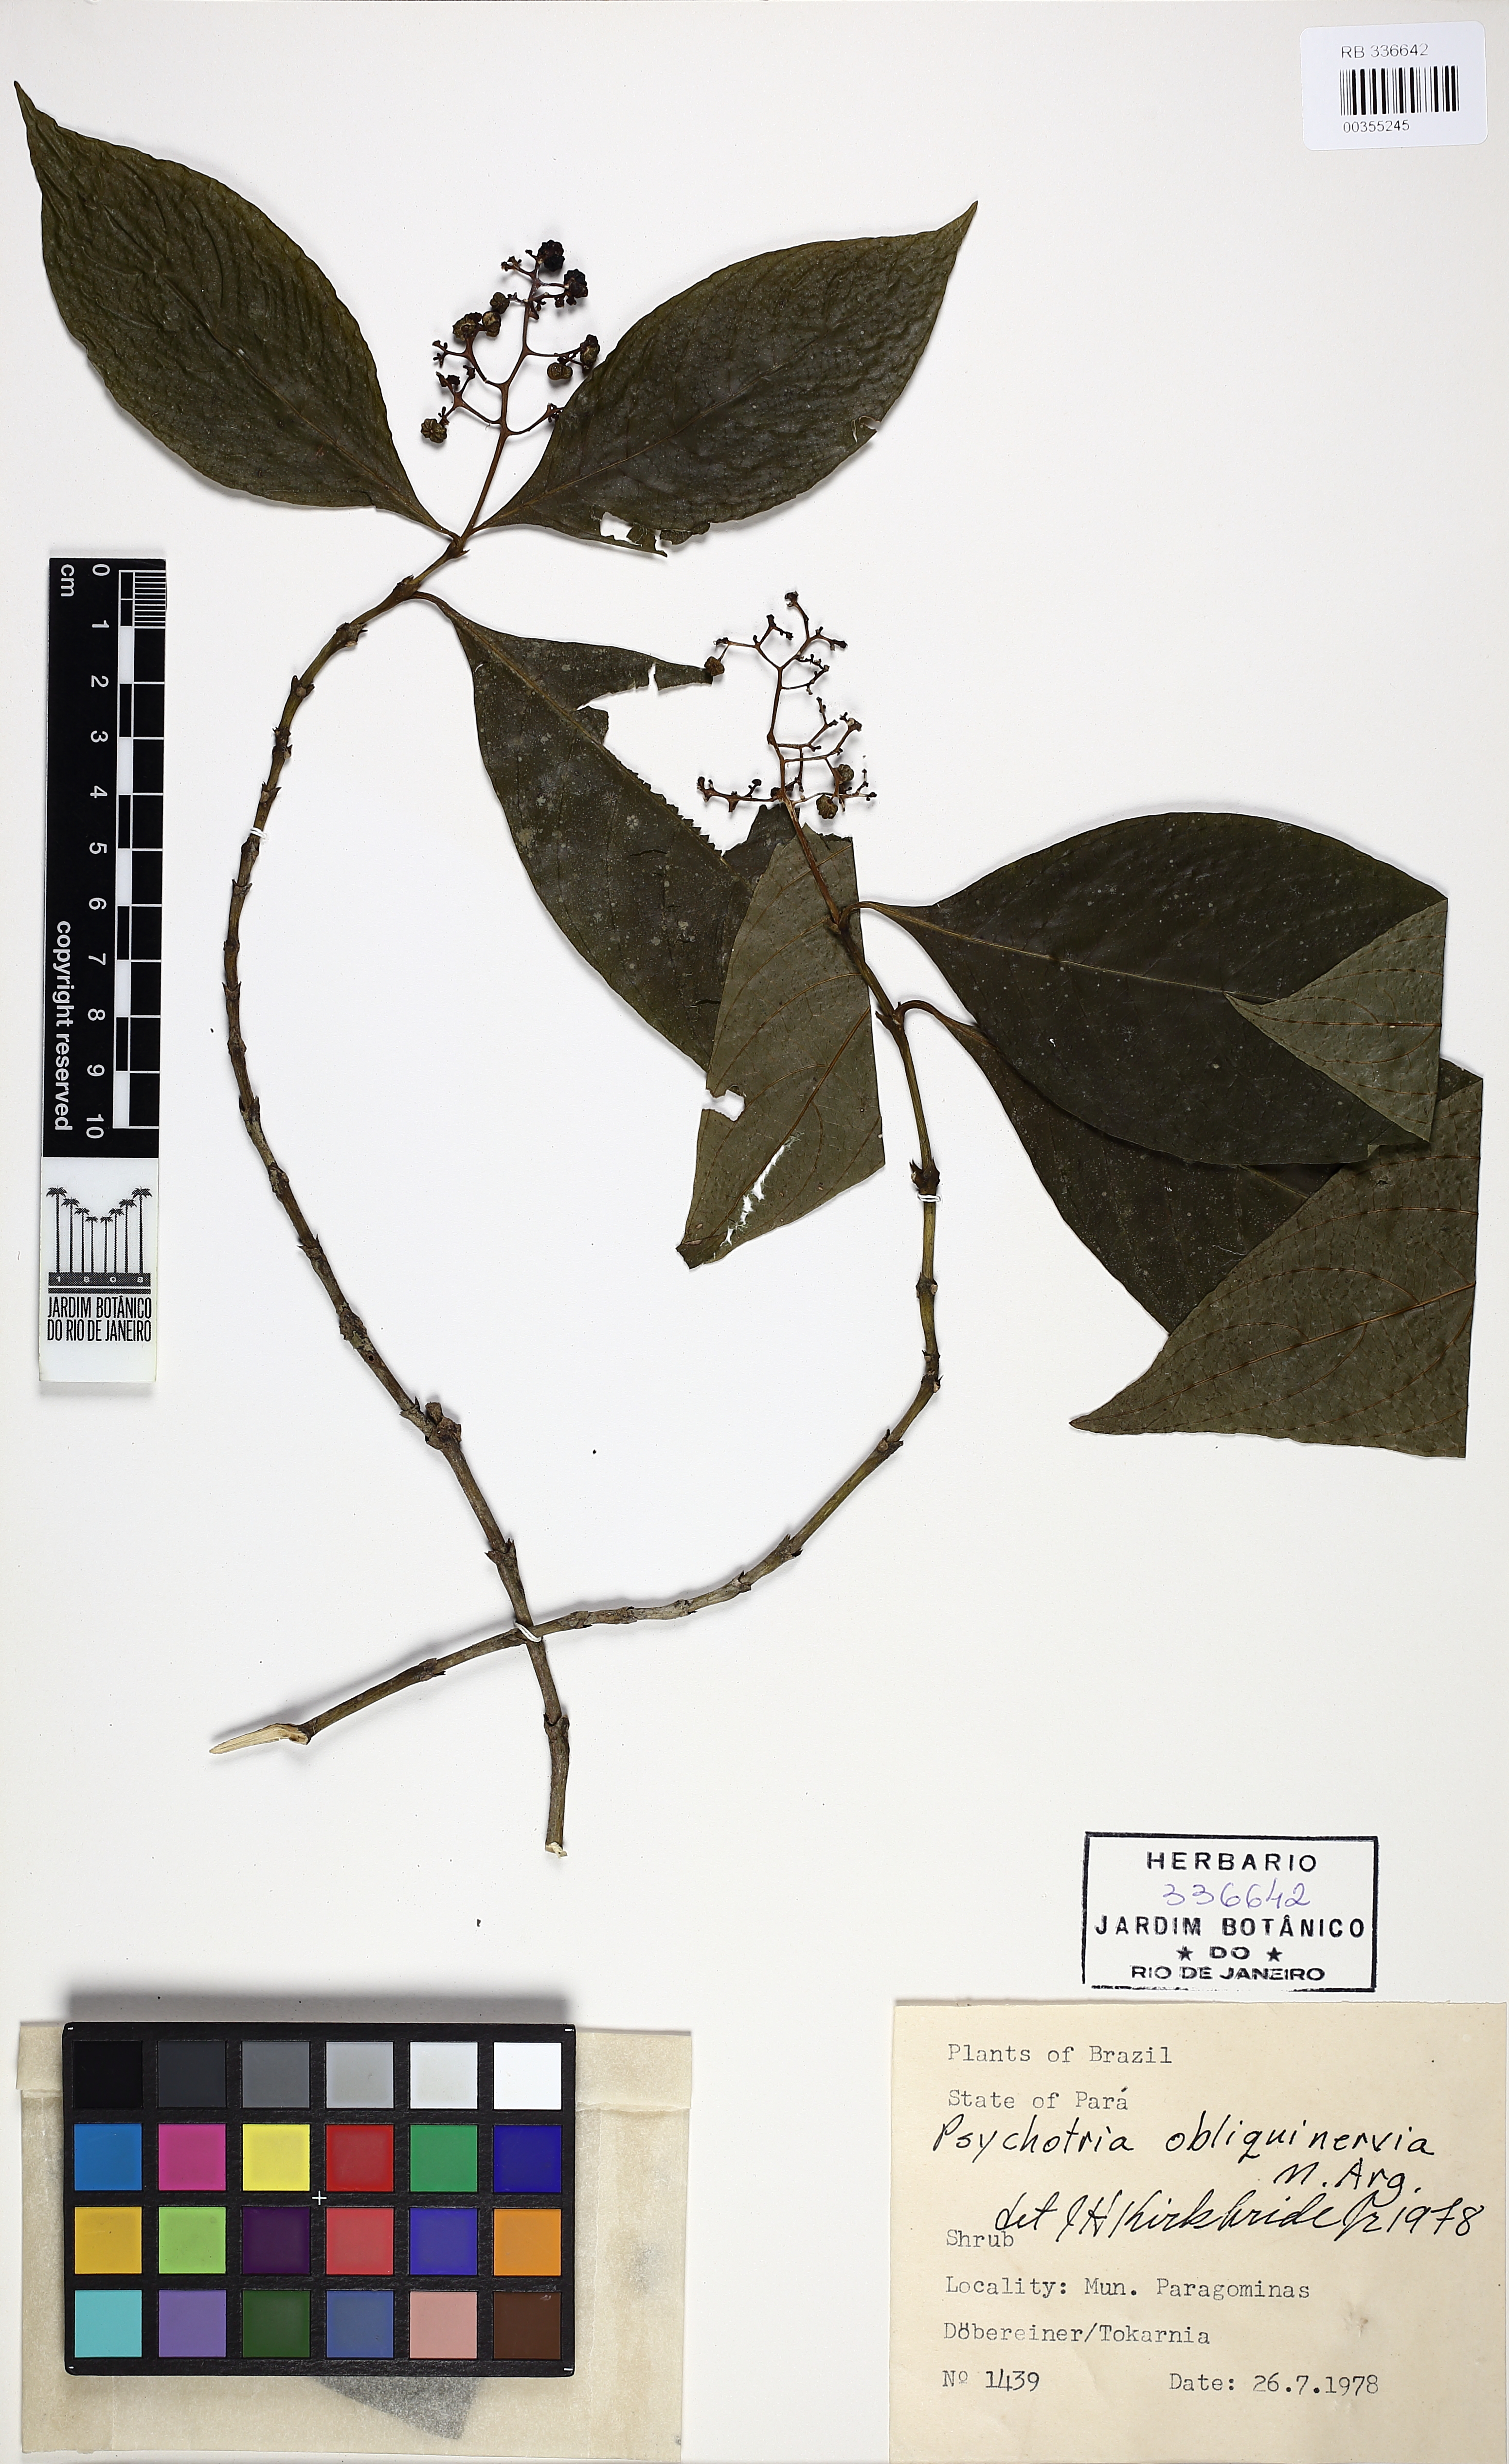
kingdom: Plantae
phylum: Tracheophyta
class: Magnoliopsida
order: Gentianales
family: Rubiaceae
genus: Palicourea
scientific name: Palicourea obliquinervia
